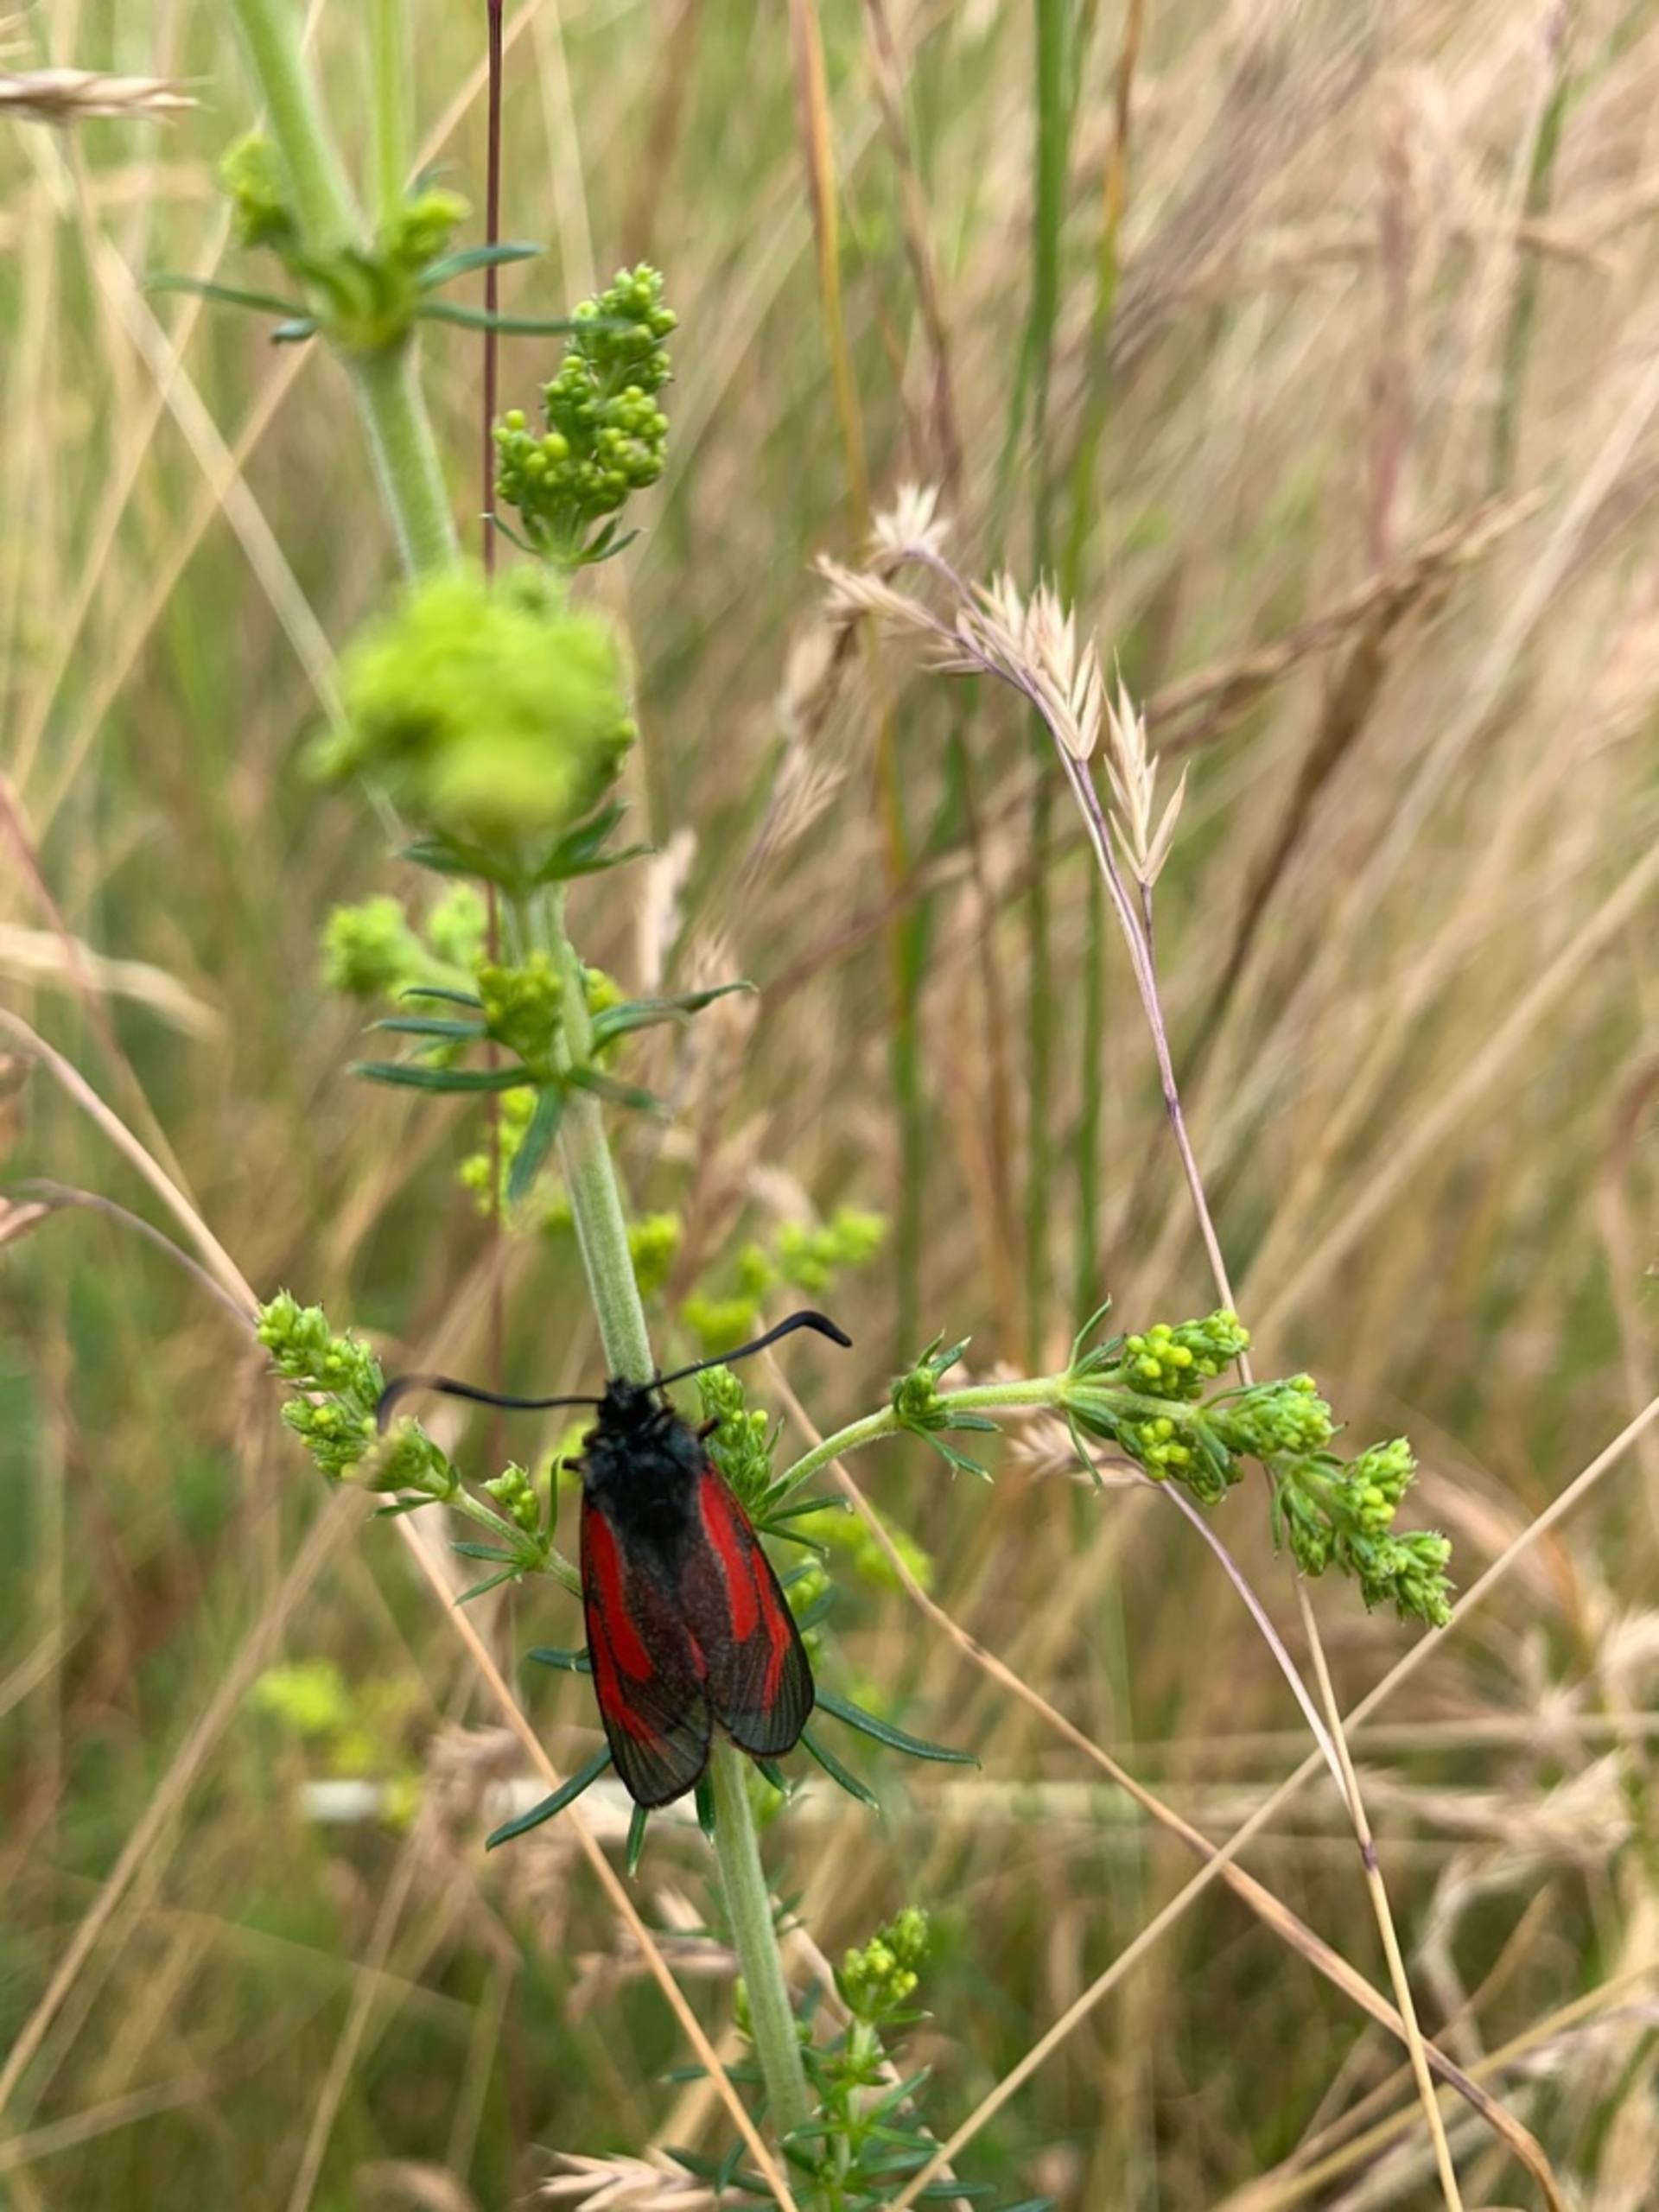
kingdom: Animalia
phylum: Arthropoda
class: Insecta
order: Lepidoptera
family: Zygaenidae
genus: Zygaena
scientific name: Zygaena minos
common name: Pimpernelkøllesværmer
